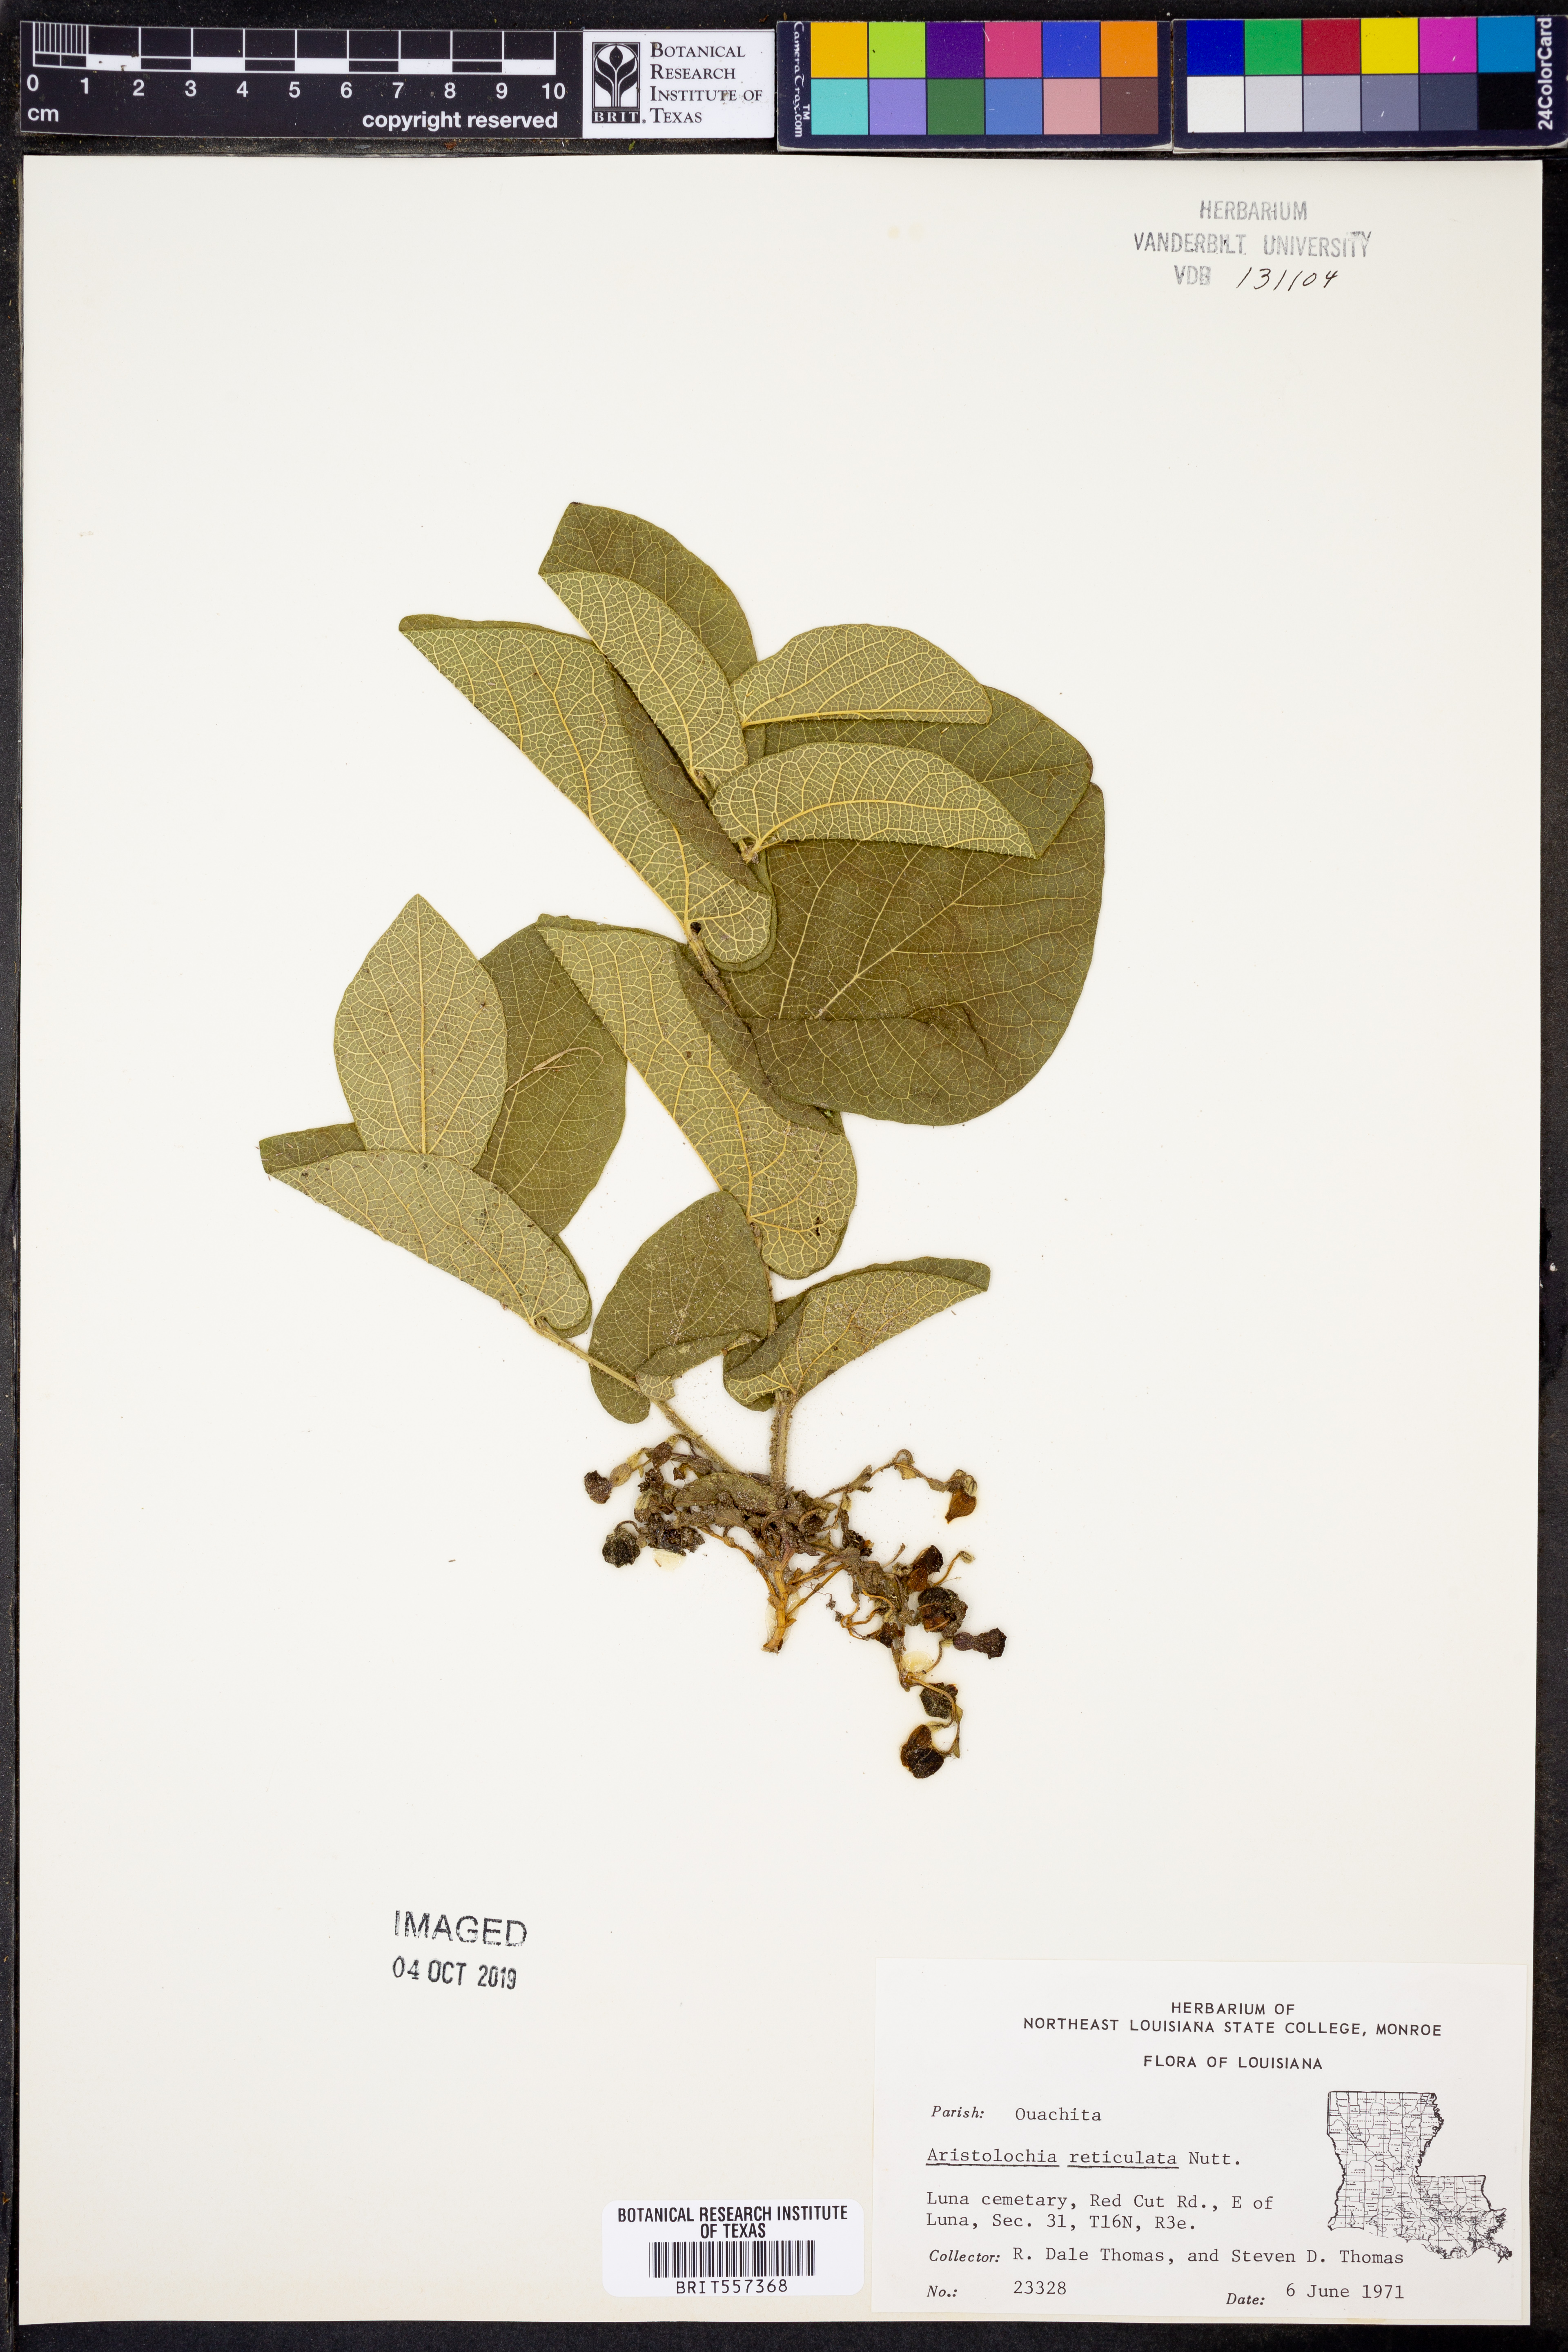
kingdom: Plantae
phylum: Tracheophyta
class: Magnoliopsida
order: Piperales
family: Aristolochiaceae
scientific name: Aristolochiaceae
